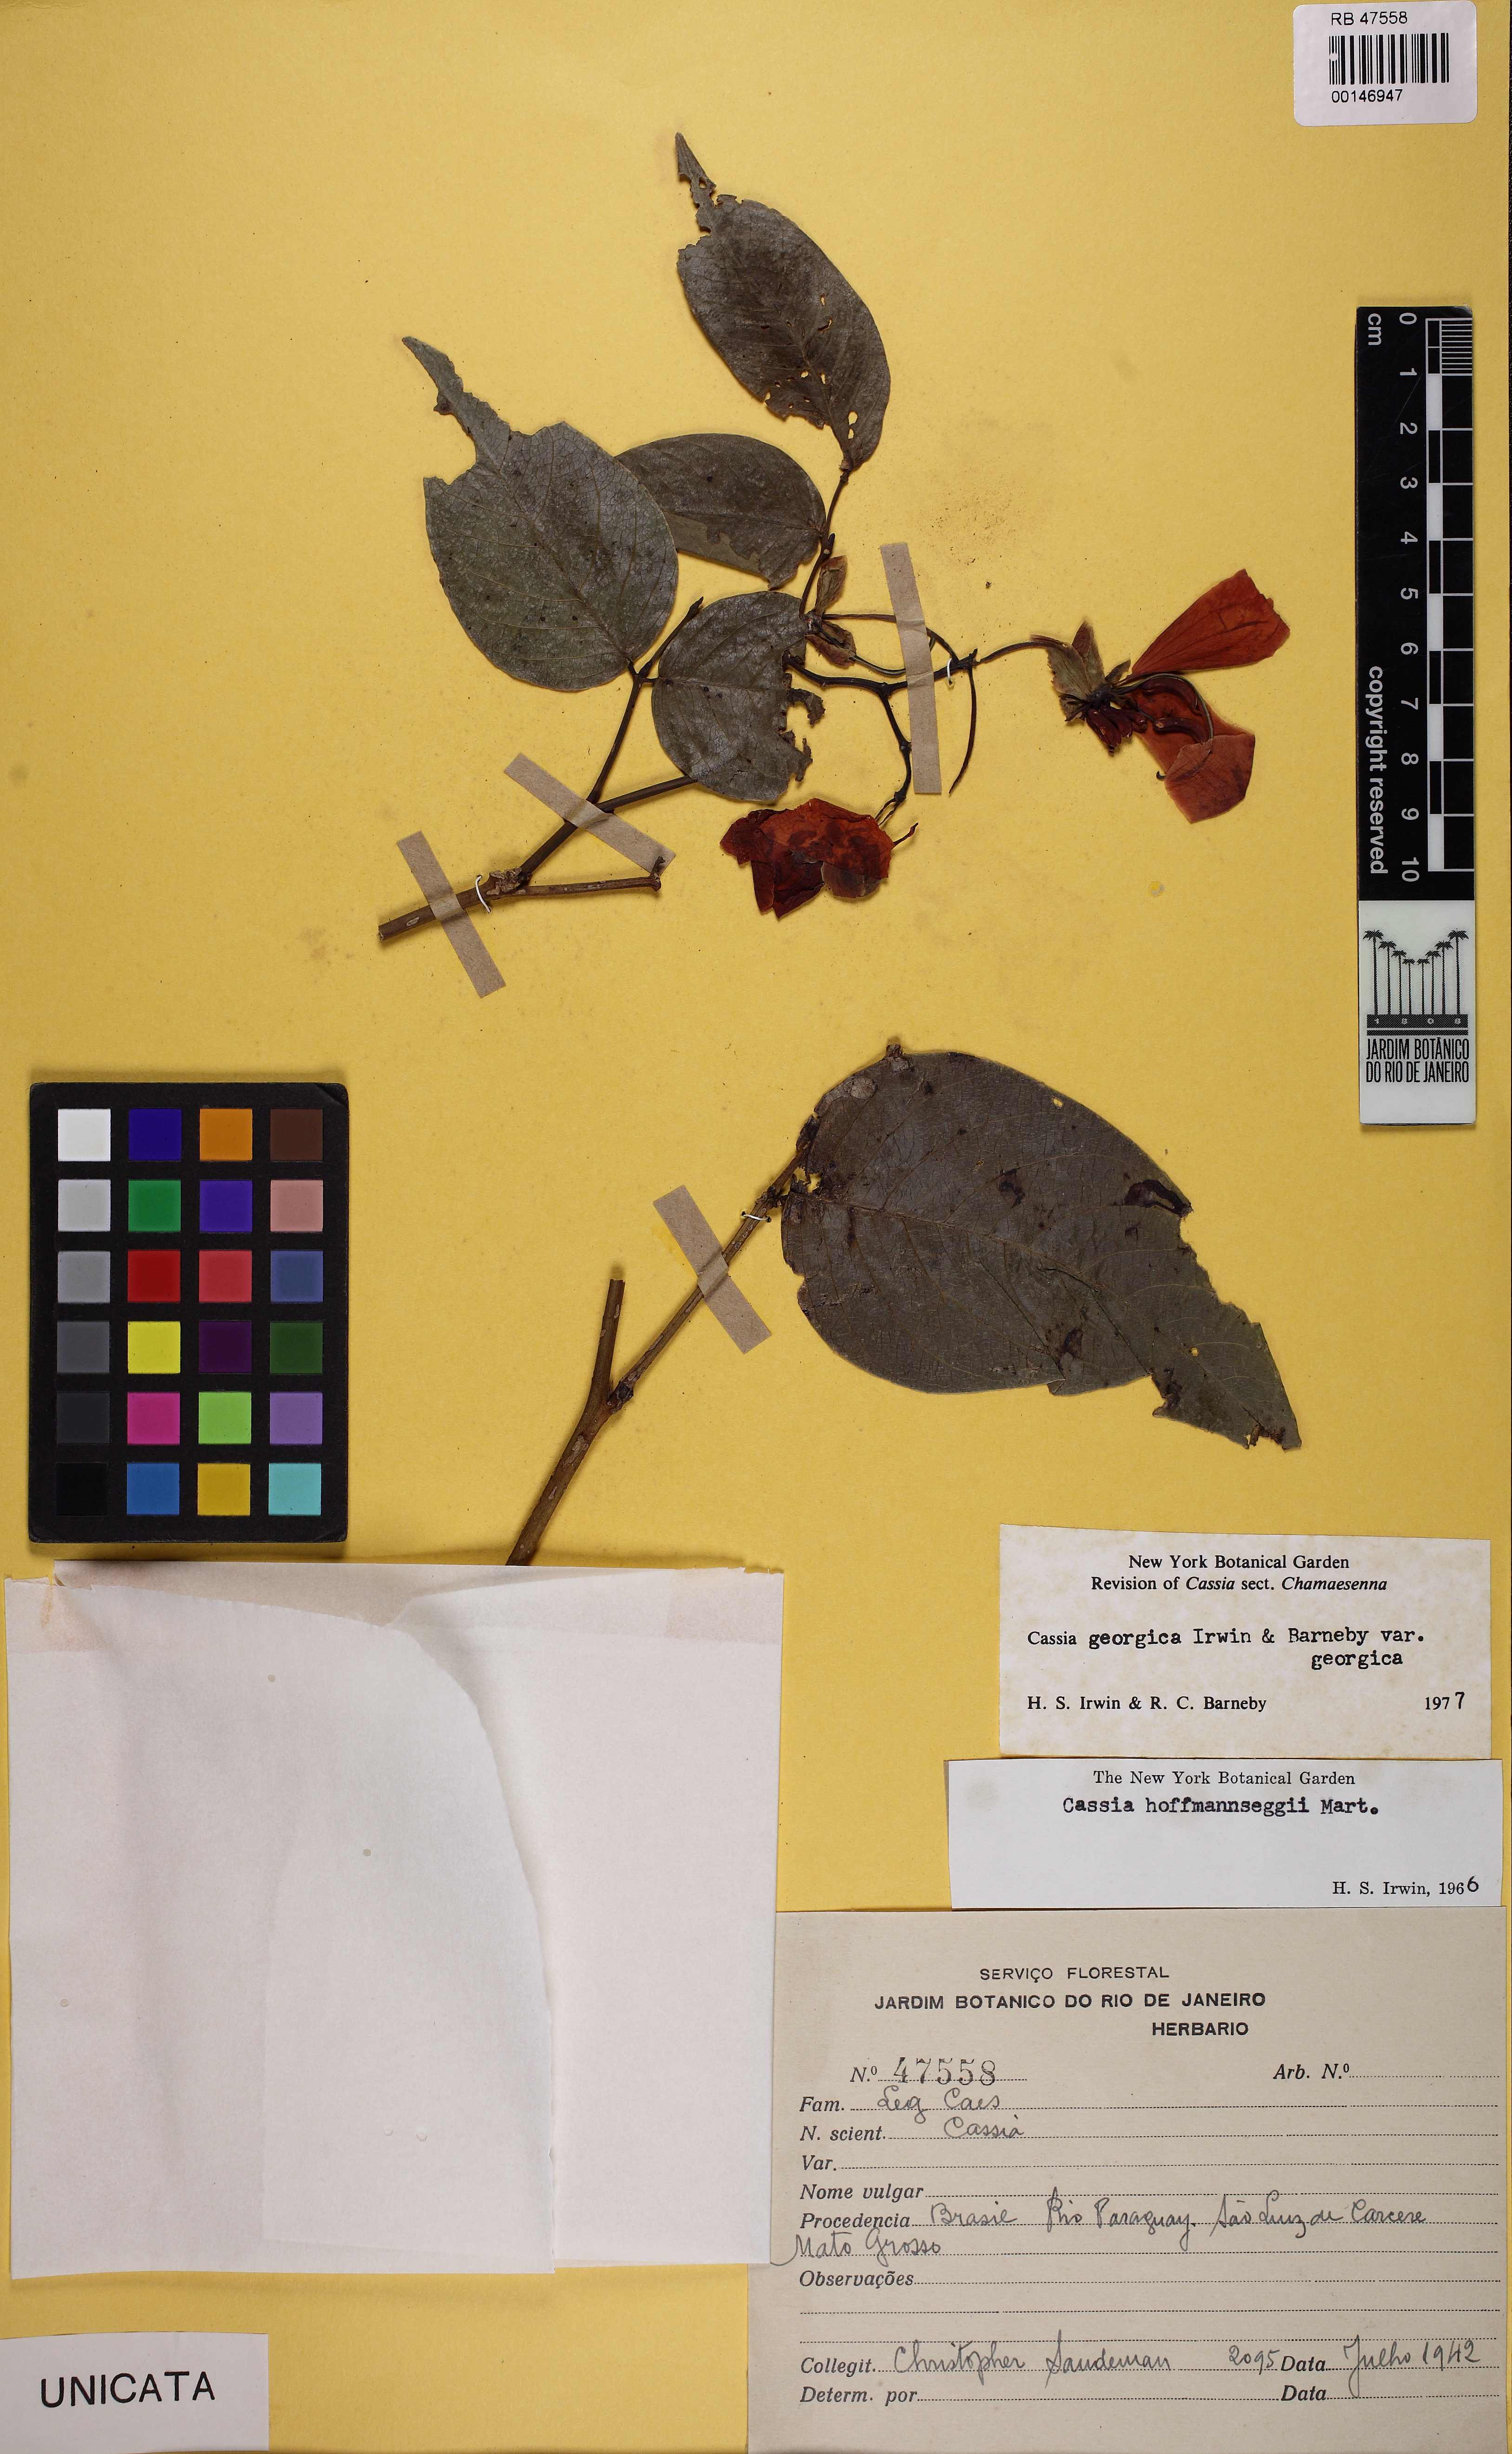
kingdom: Plantae
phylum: Tracheophyta
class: Magnoliopsida
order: Fabales
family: Fabaceae
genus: Senna
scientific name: Senna georgica
